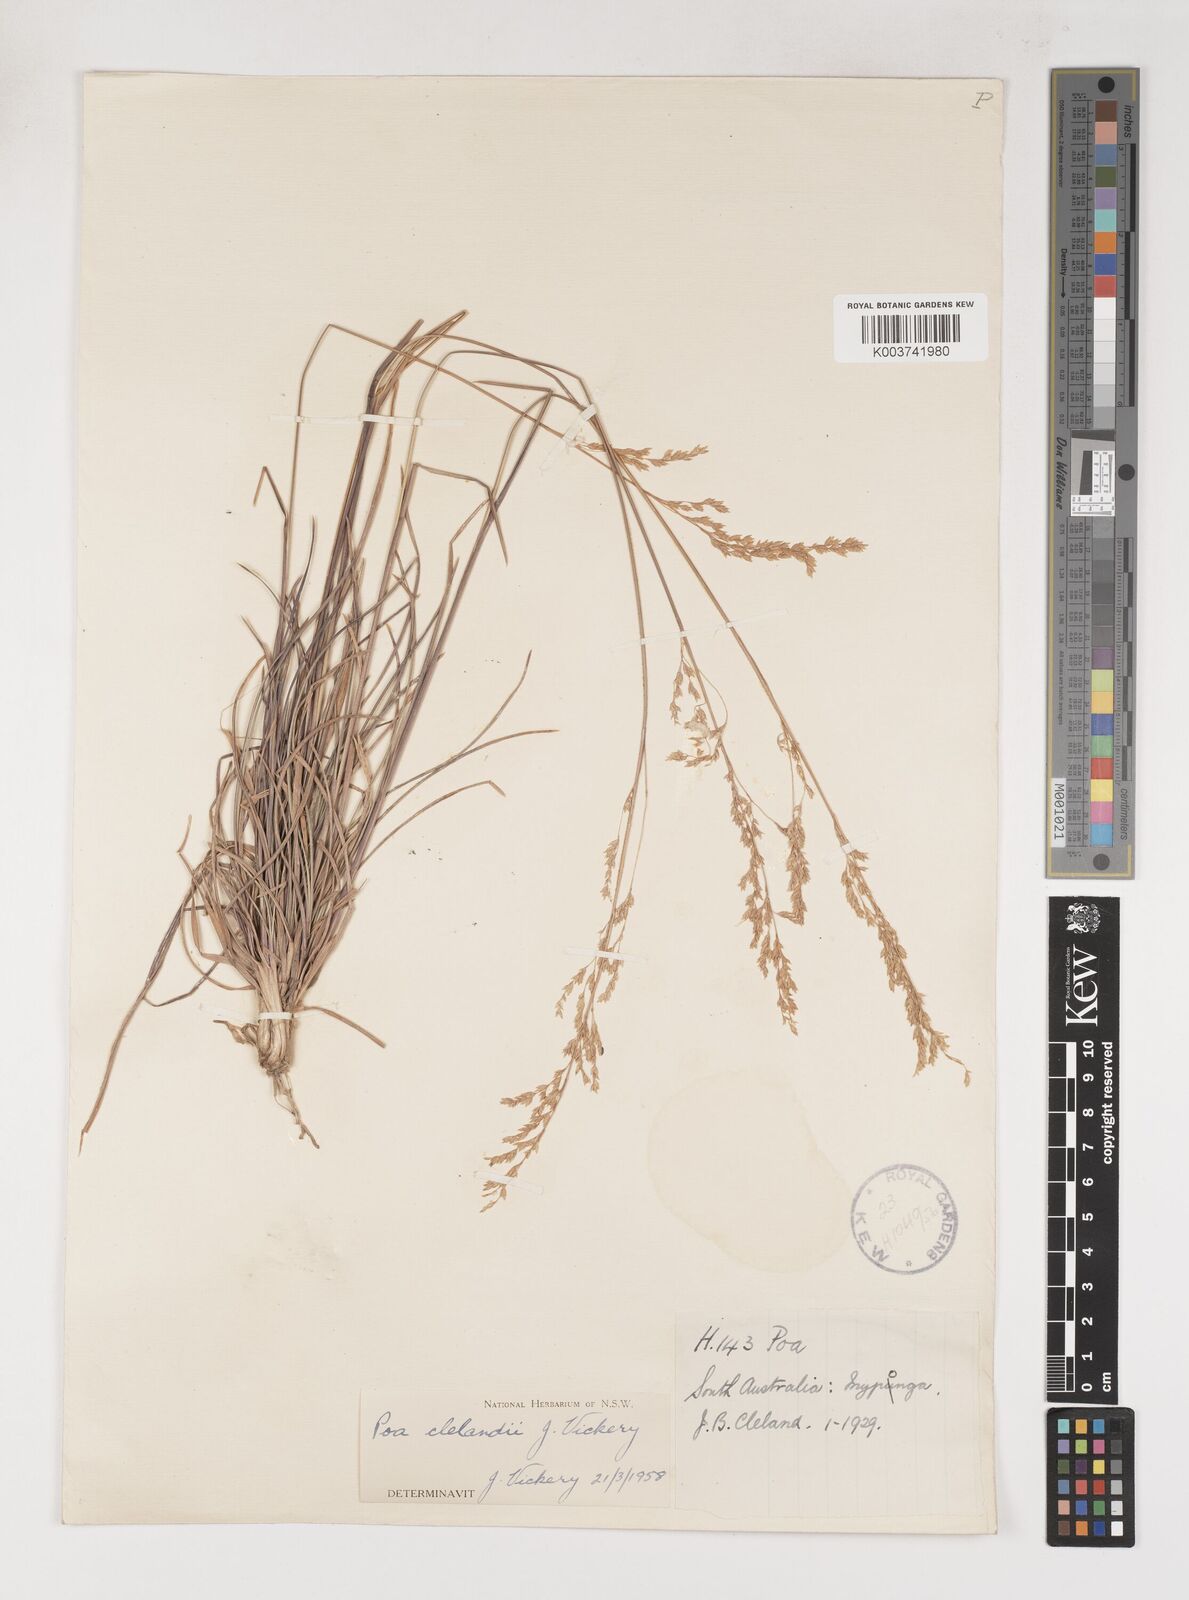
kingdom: Plantae
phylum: Tracheophyta
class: Liliopsida
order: Poales
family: Poaceae
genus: Poa
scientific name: Poa clelandii
